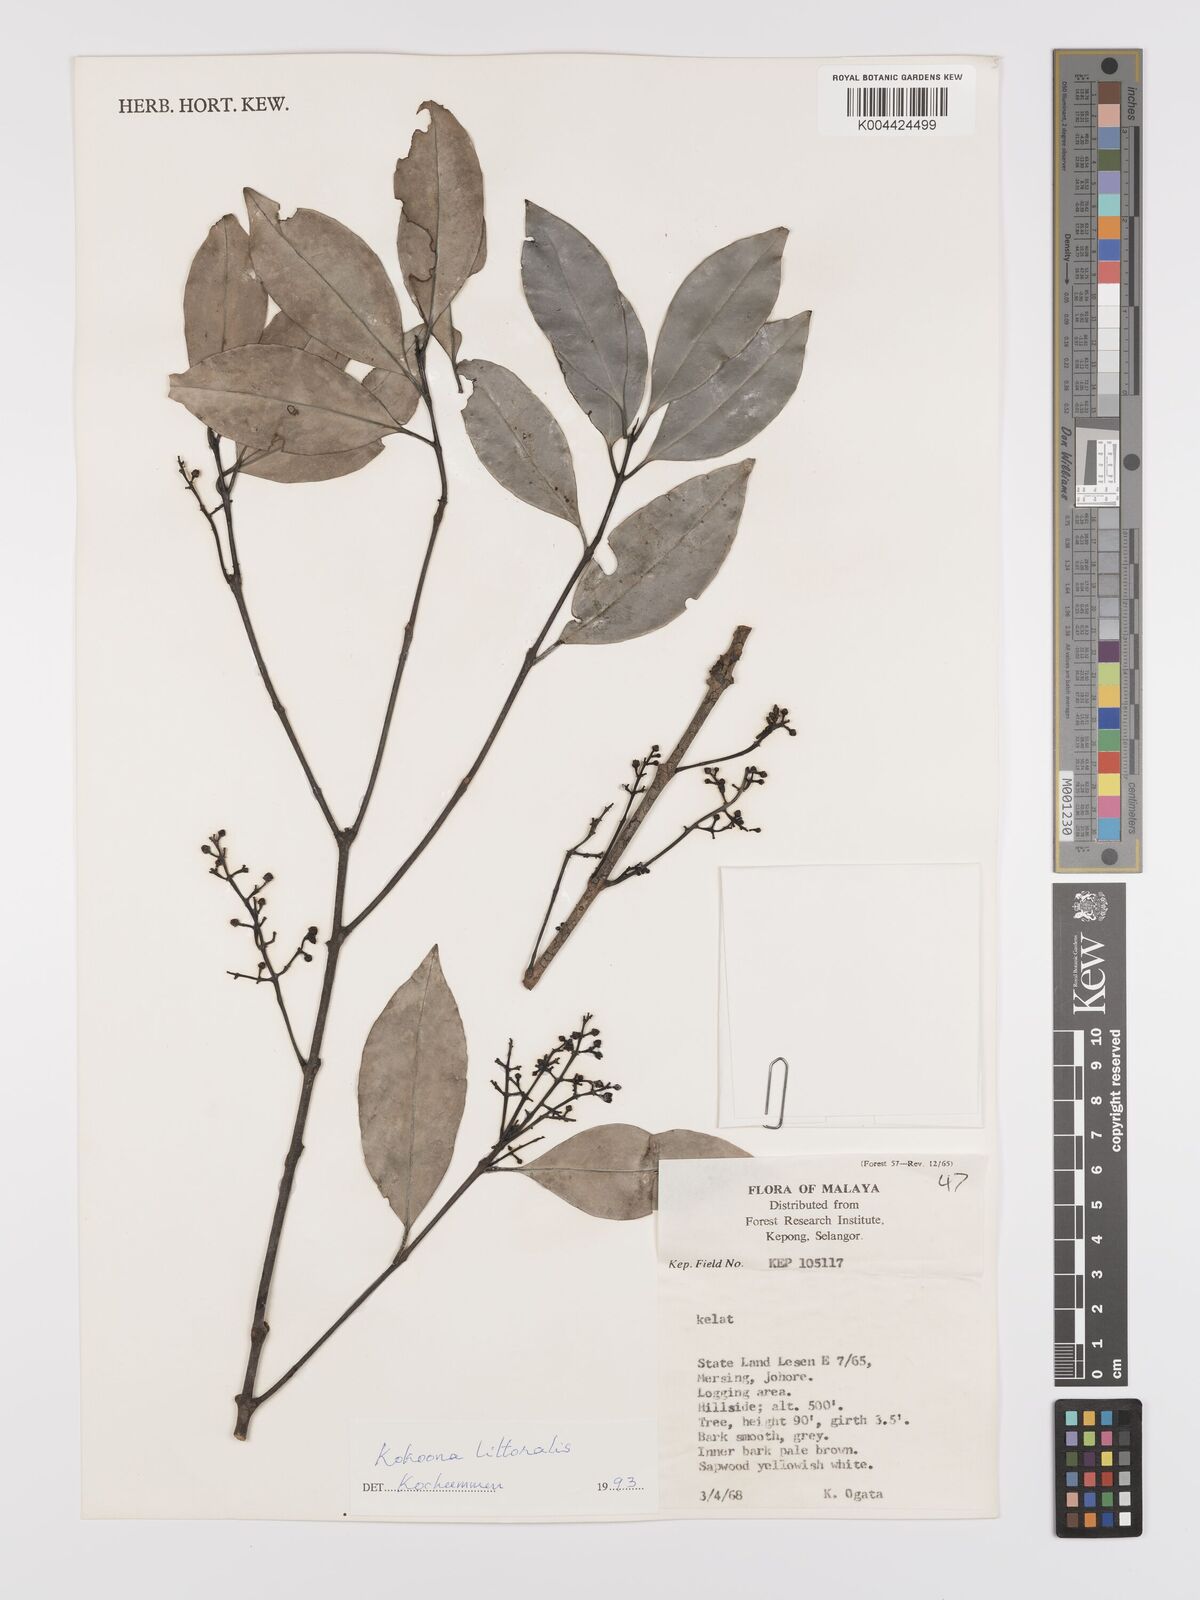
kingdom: Plantae
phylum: Tracheophyta
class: Magnoliopsida
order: Celastrales
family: Celastraceae
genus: Kokoona
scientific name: Kokoona littoralis
